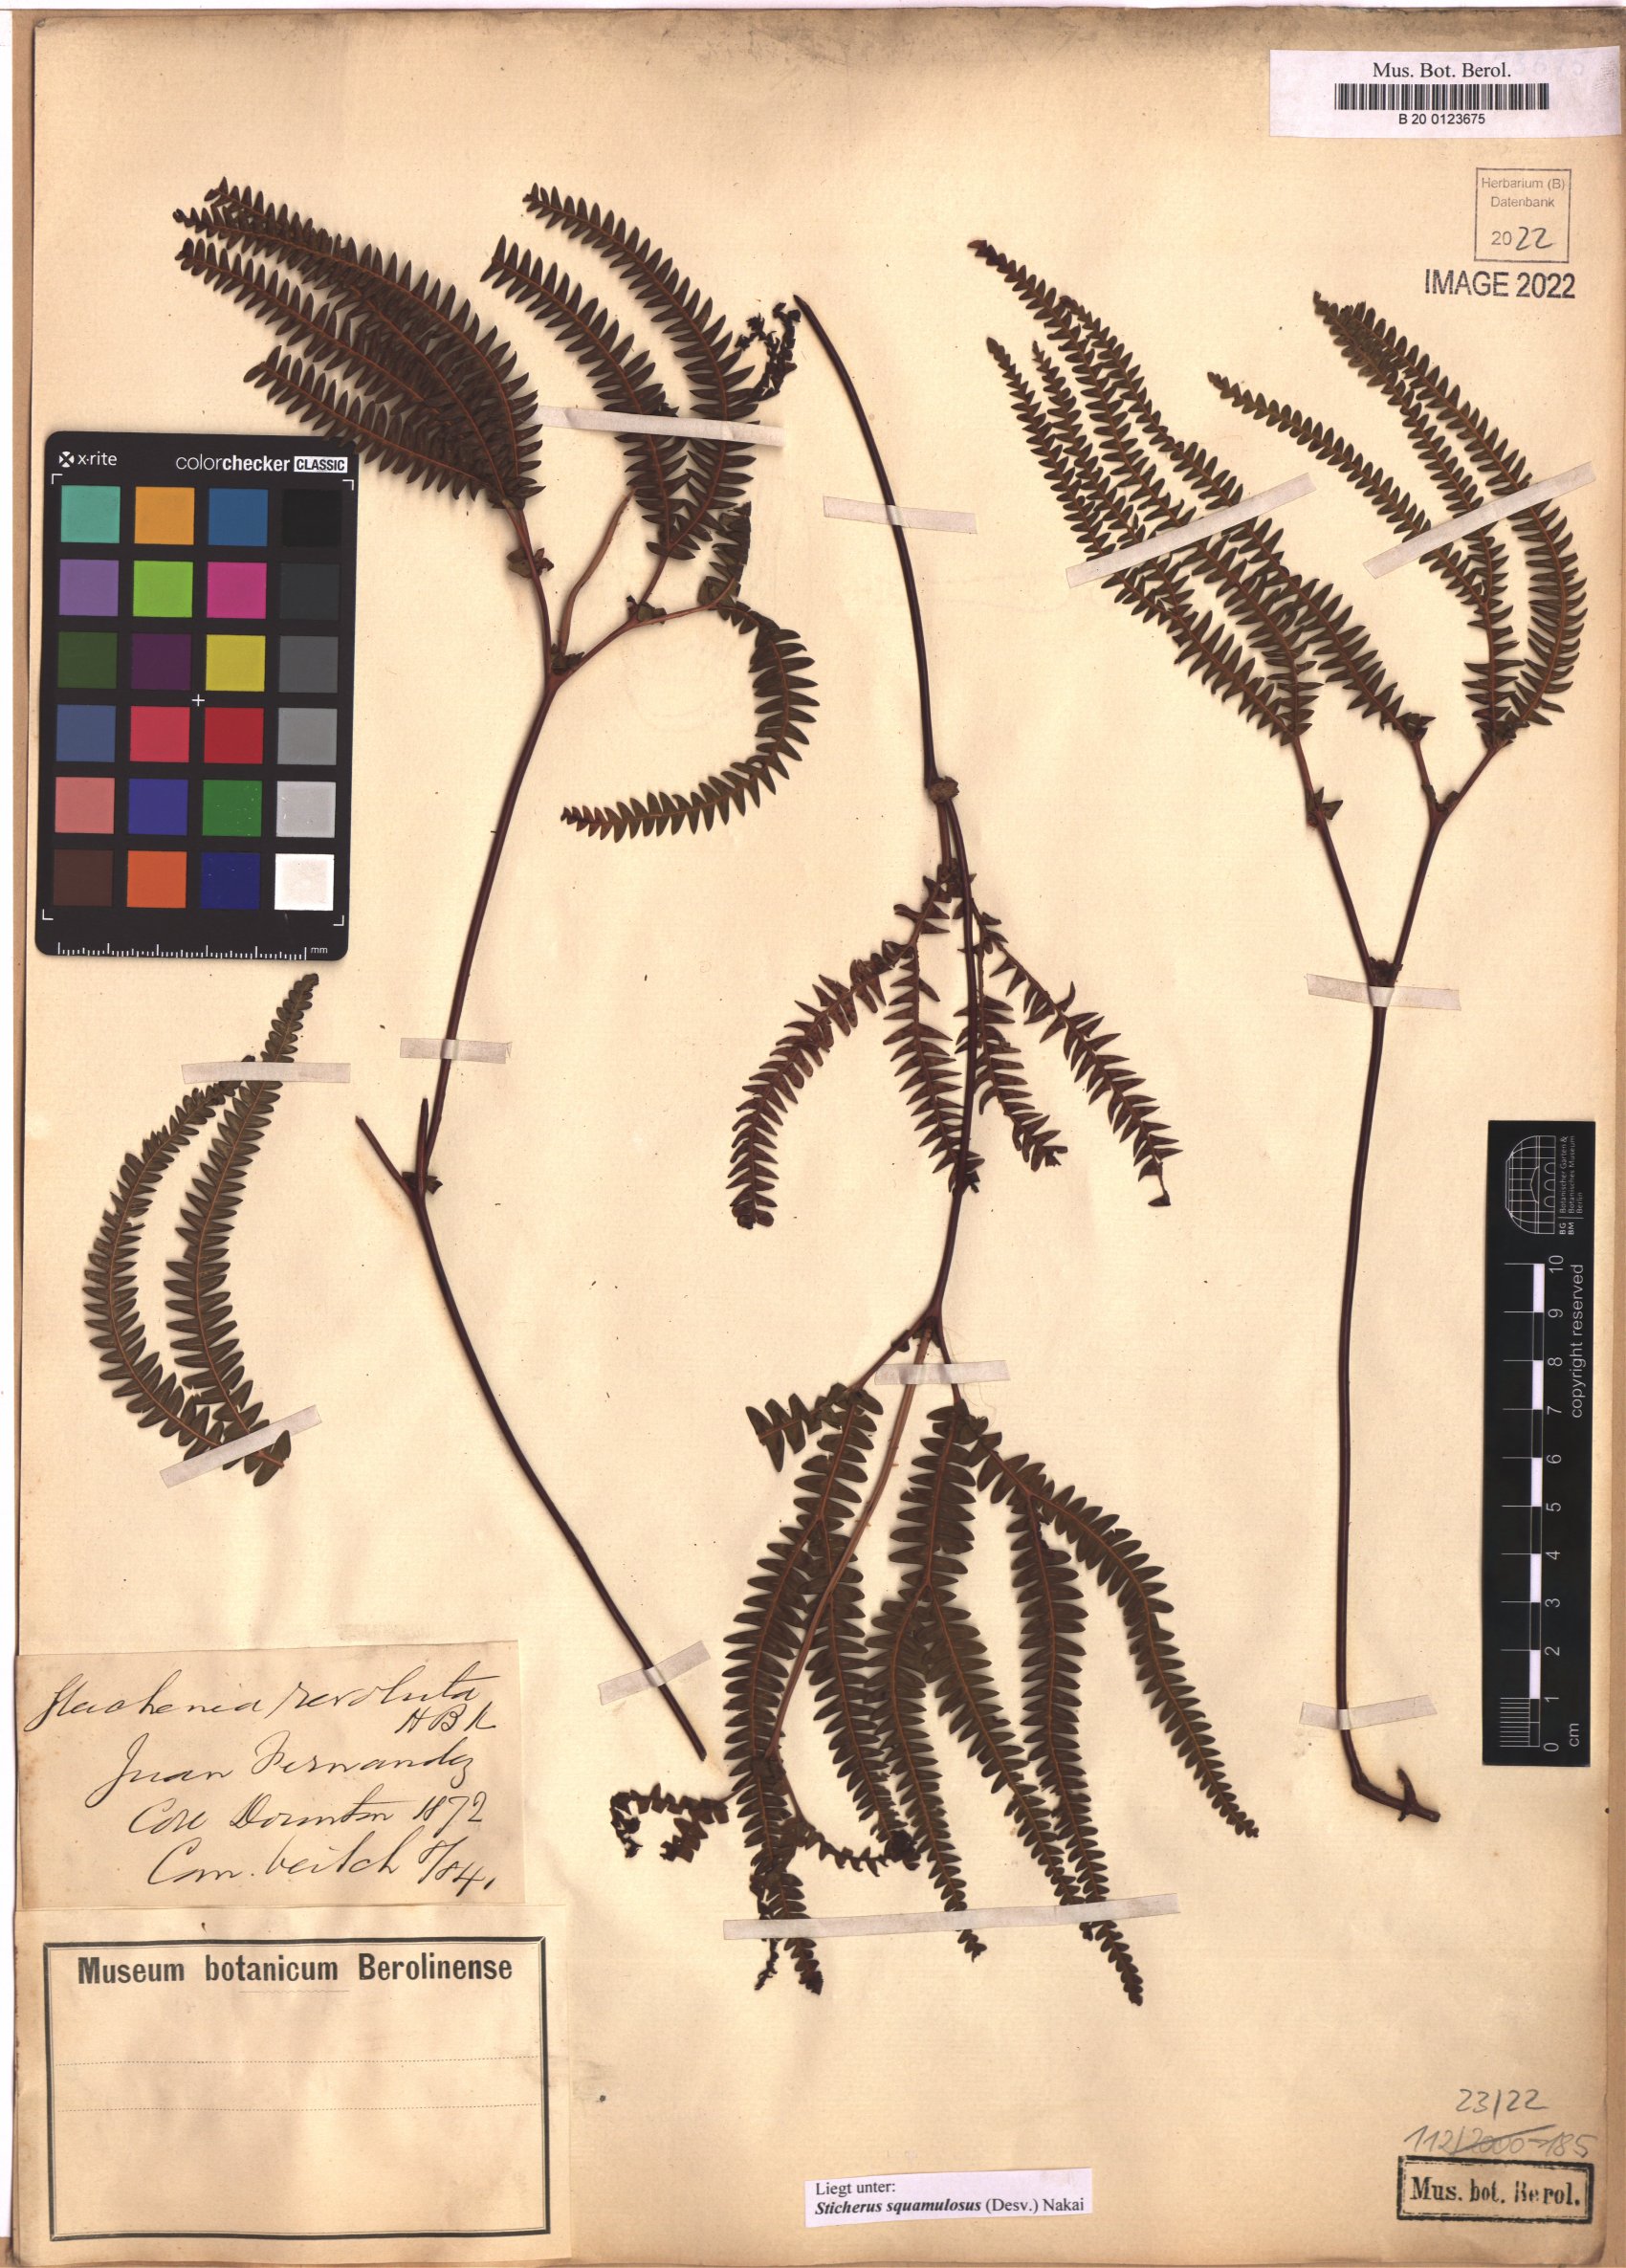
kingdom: Plantae
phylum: Tracheophyta
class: Polypodiopsida
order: Gleicheniales
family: Gleicheniaceae
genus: Sticherus
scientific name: Sticherus squamulosus
